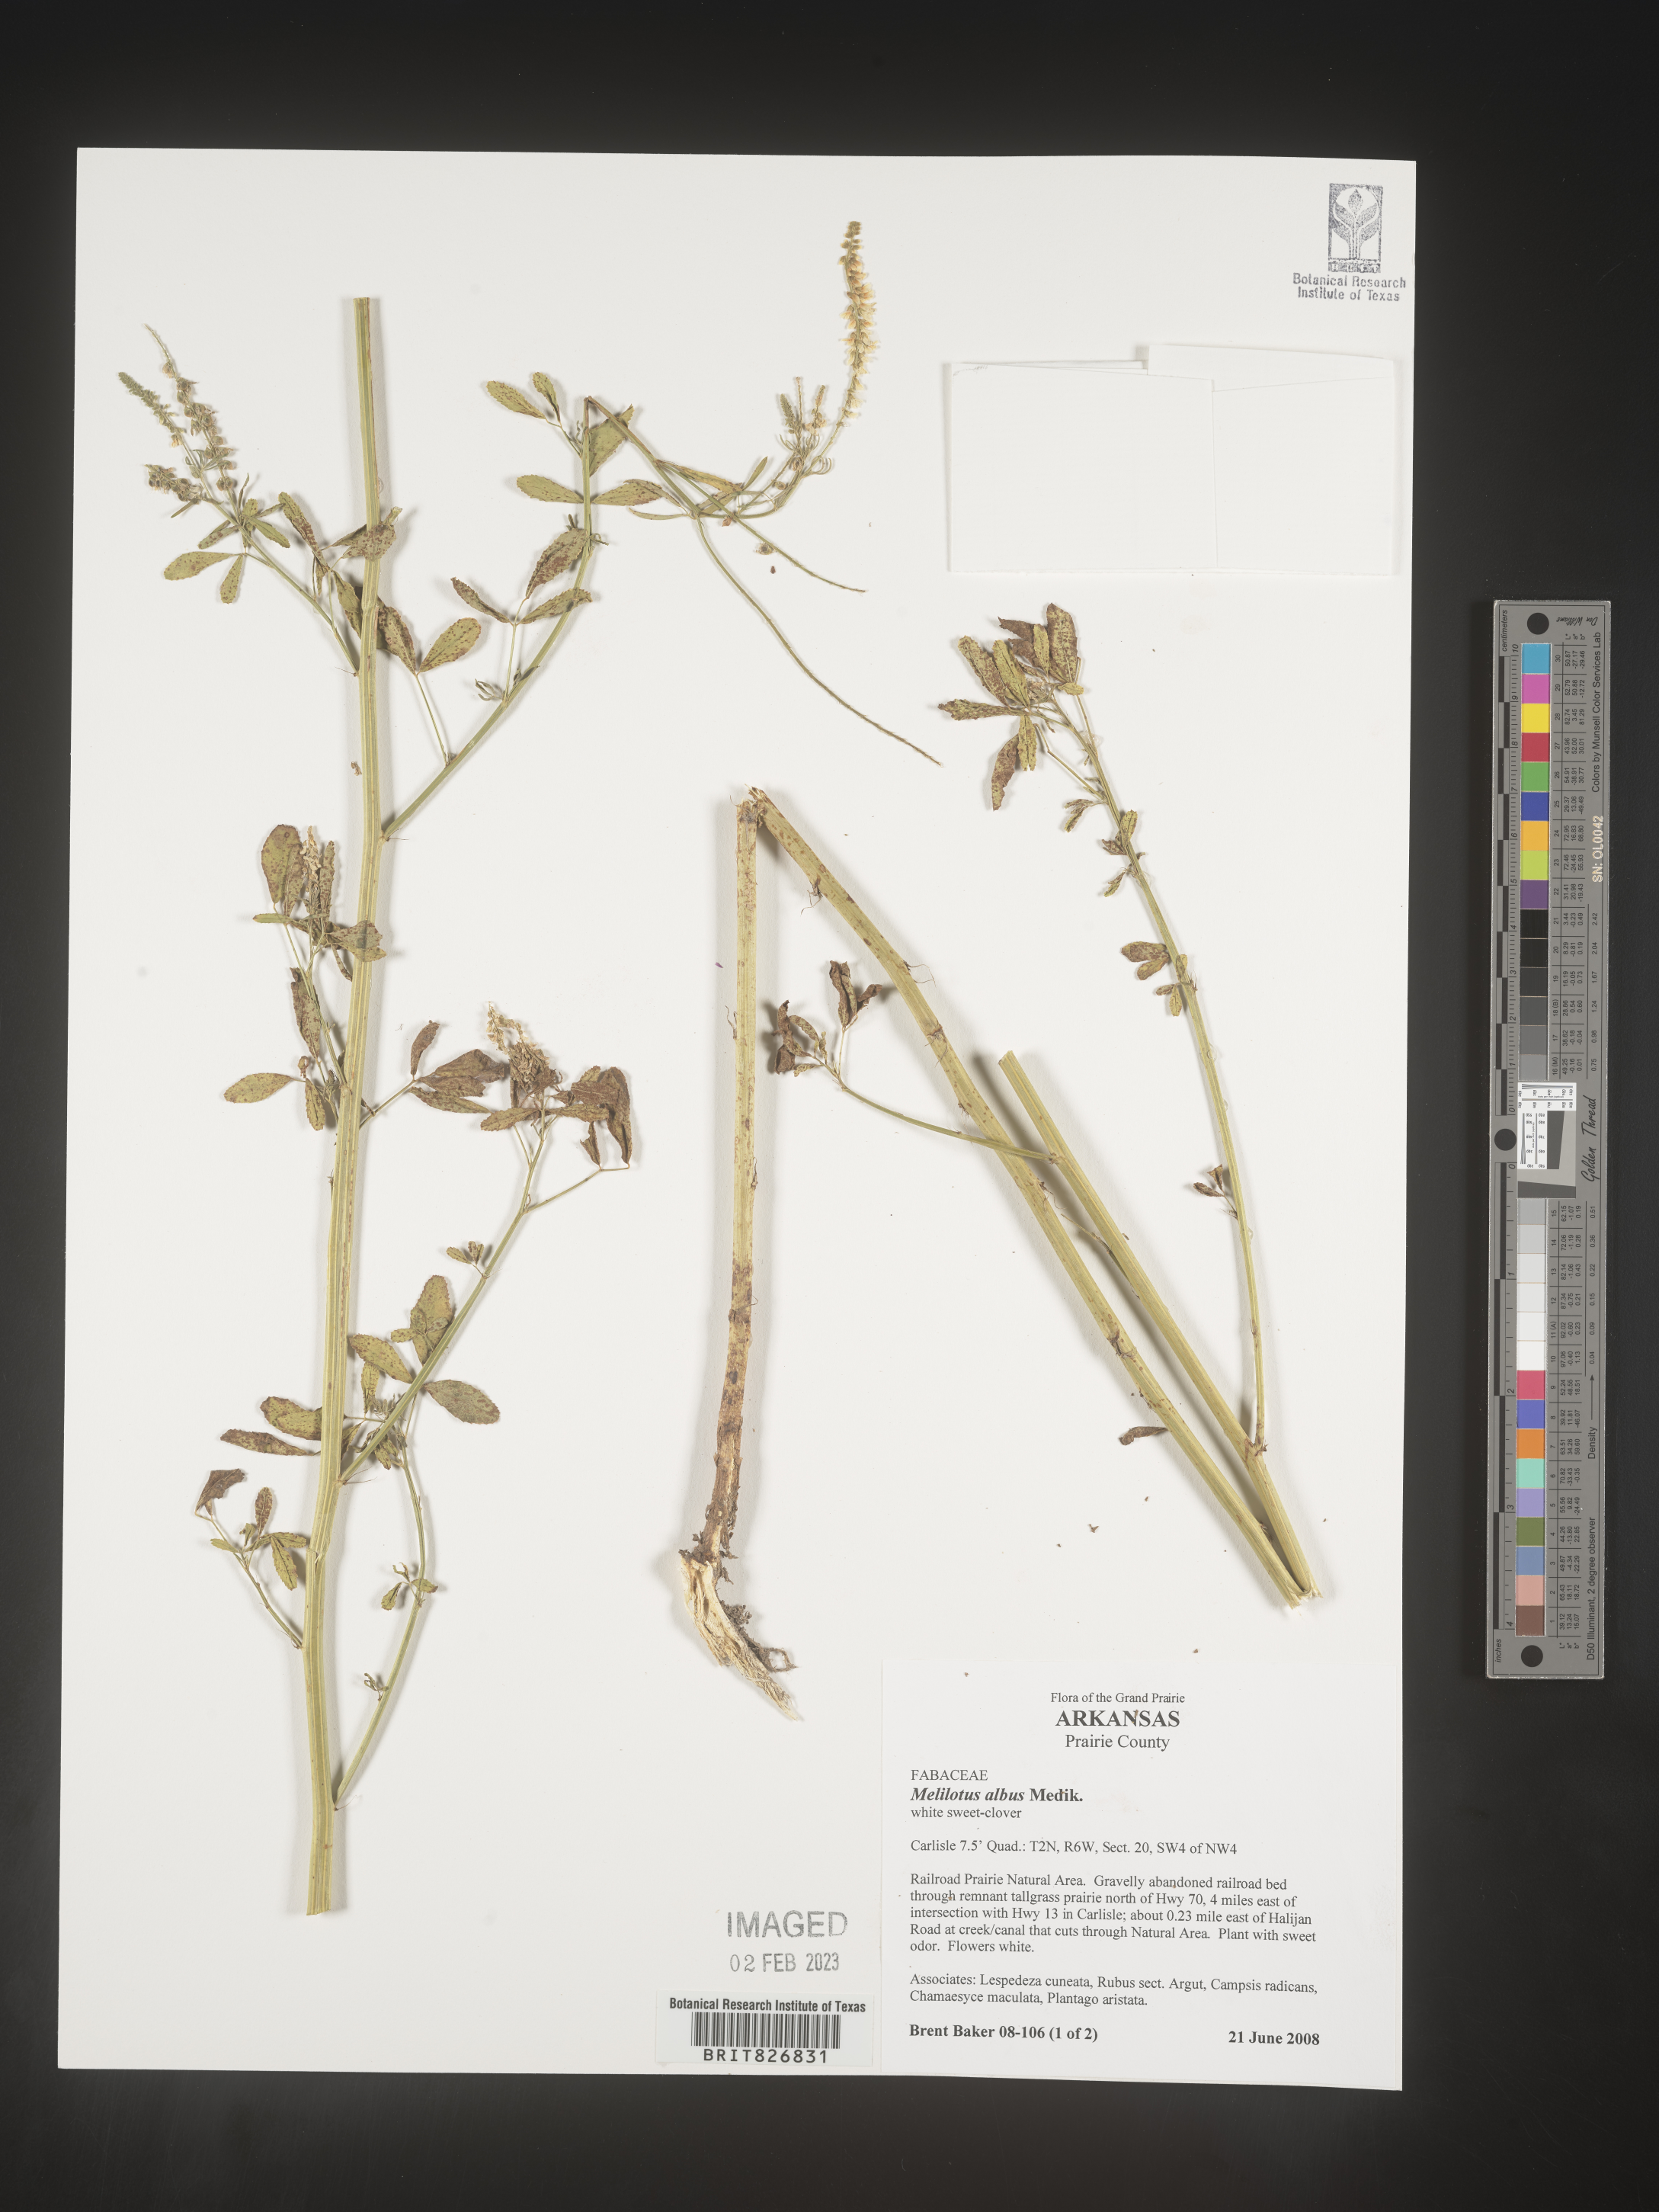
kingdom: Plantae
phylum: Tracheophyta
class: Magnoliopsida
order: Fabales
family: Fabaceae
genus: Melilotus
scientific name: Melilotus albus
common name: White melilot
